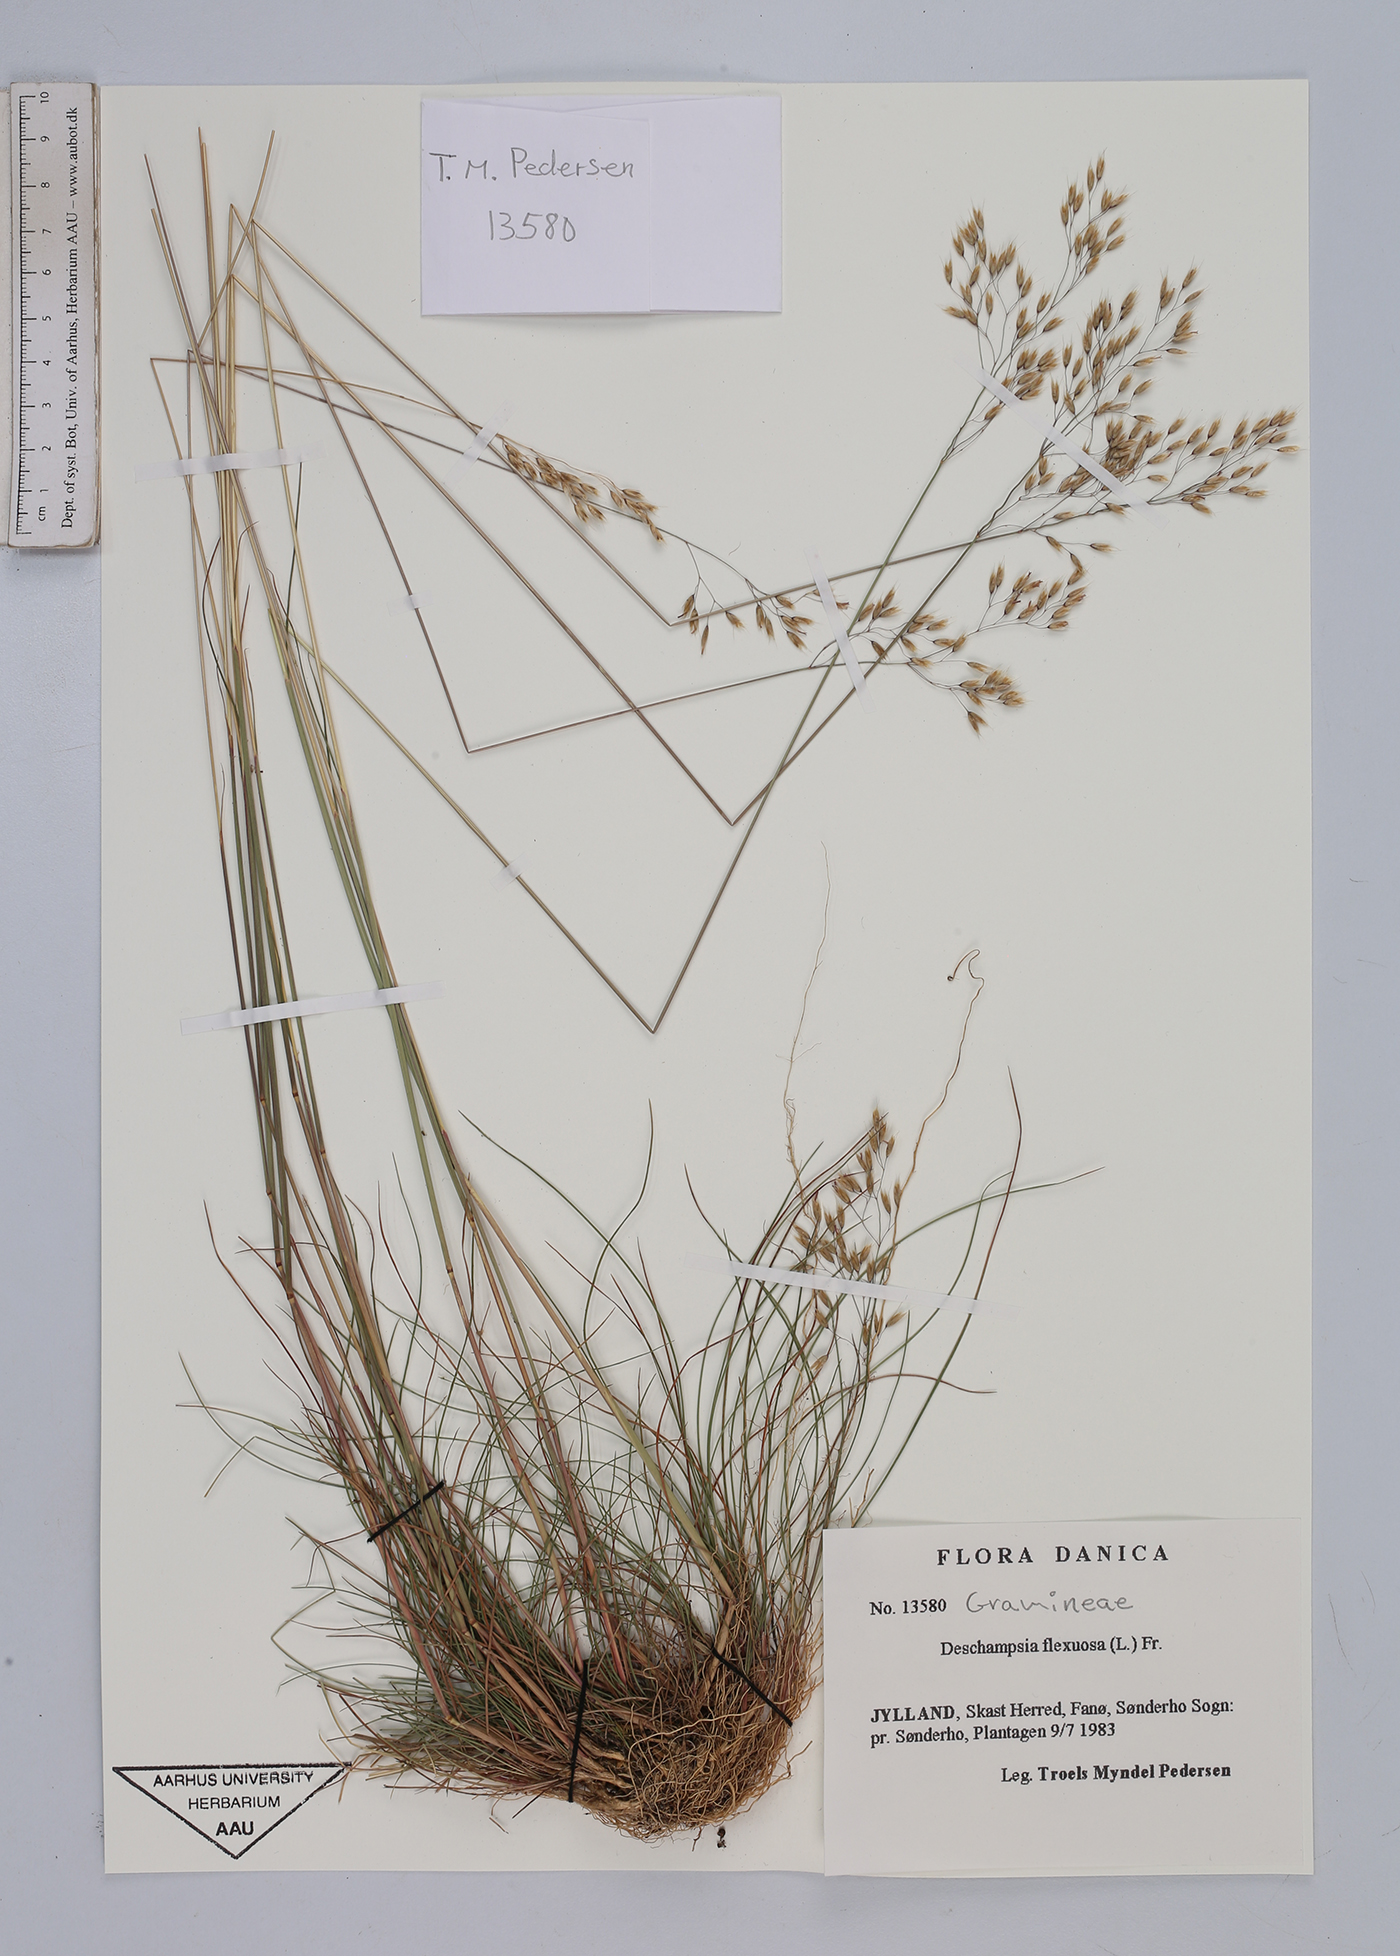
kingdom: Plantae
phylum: Tracheophyta
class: Liliopsida
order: Poales
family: Poaceae
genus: Avenella
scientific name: Avenella flexuosa
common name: Wavy hairgrass
